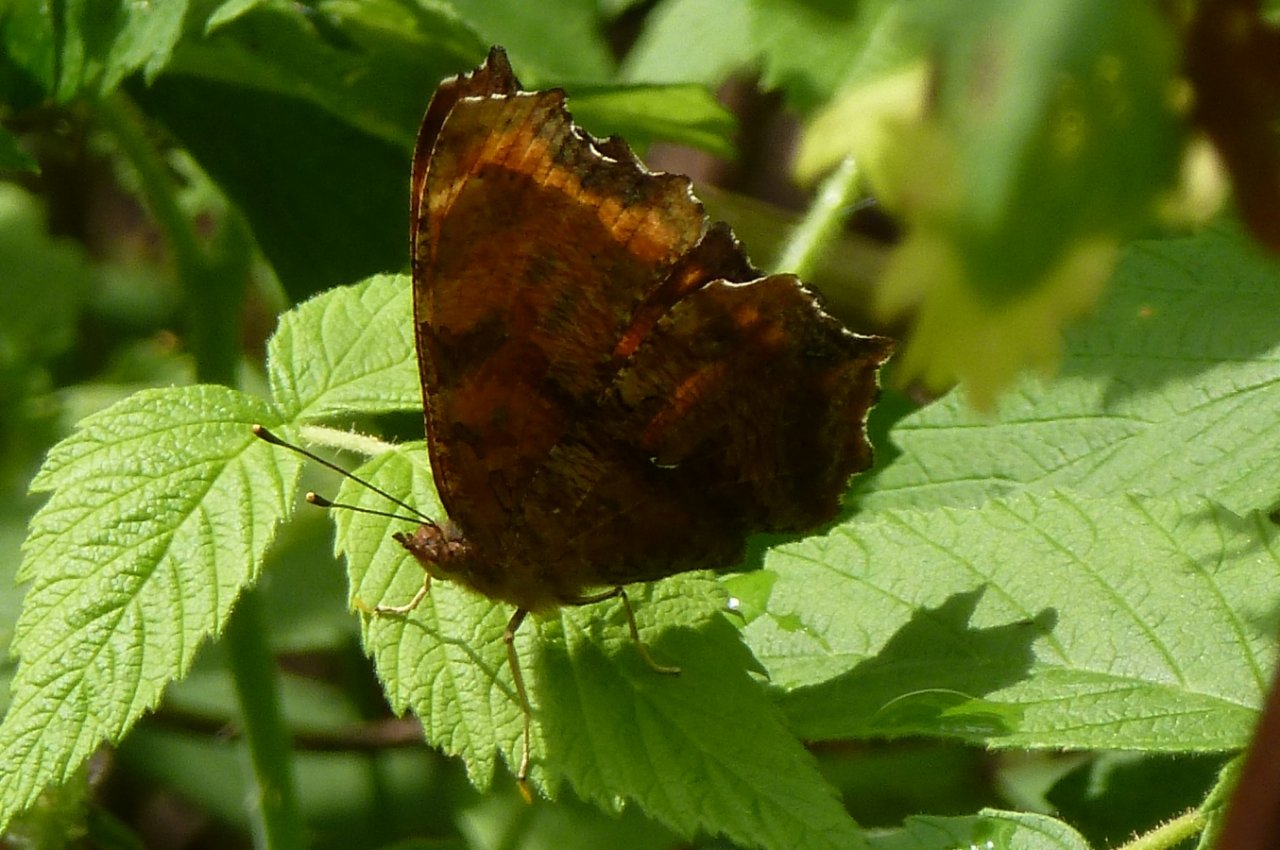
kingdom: Animalia
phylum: Arthropoda
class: Insecta
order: Lepidoptera
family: Nymphalidae
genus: Polygonia
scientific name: Polygonia comma
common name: Eastern Comma
